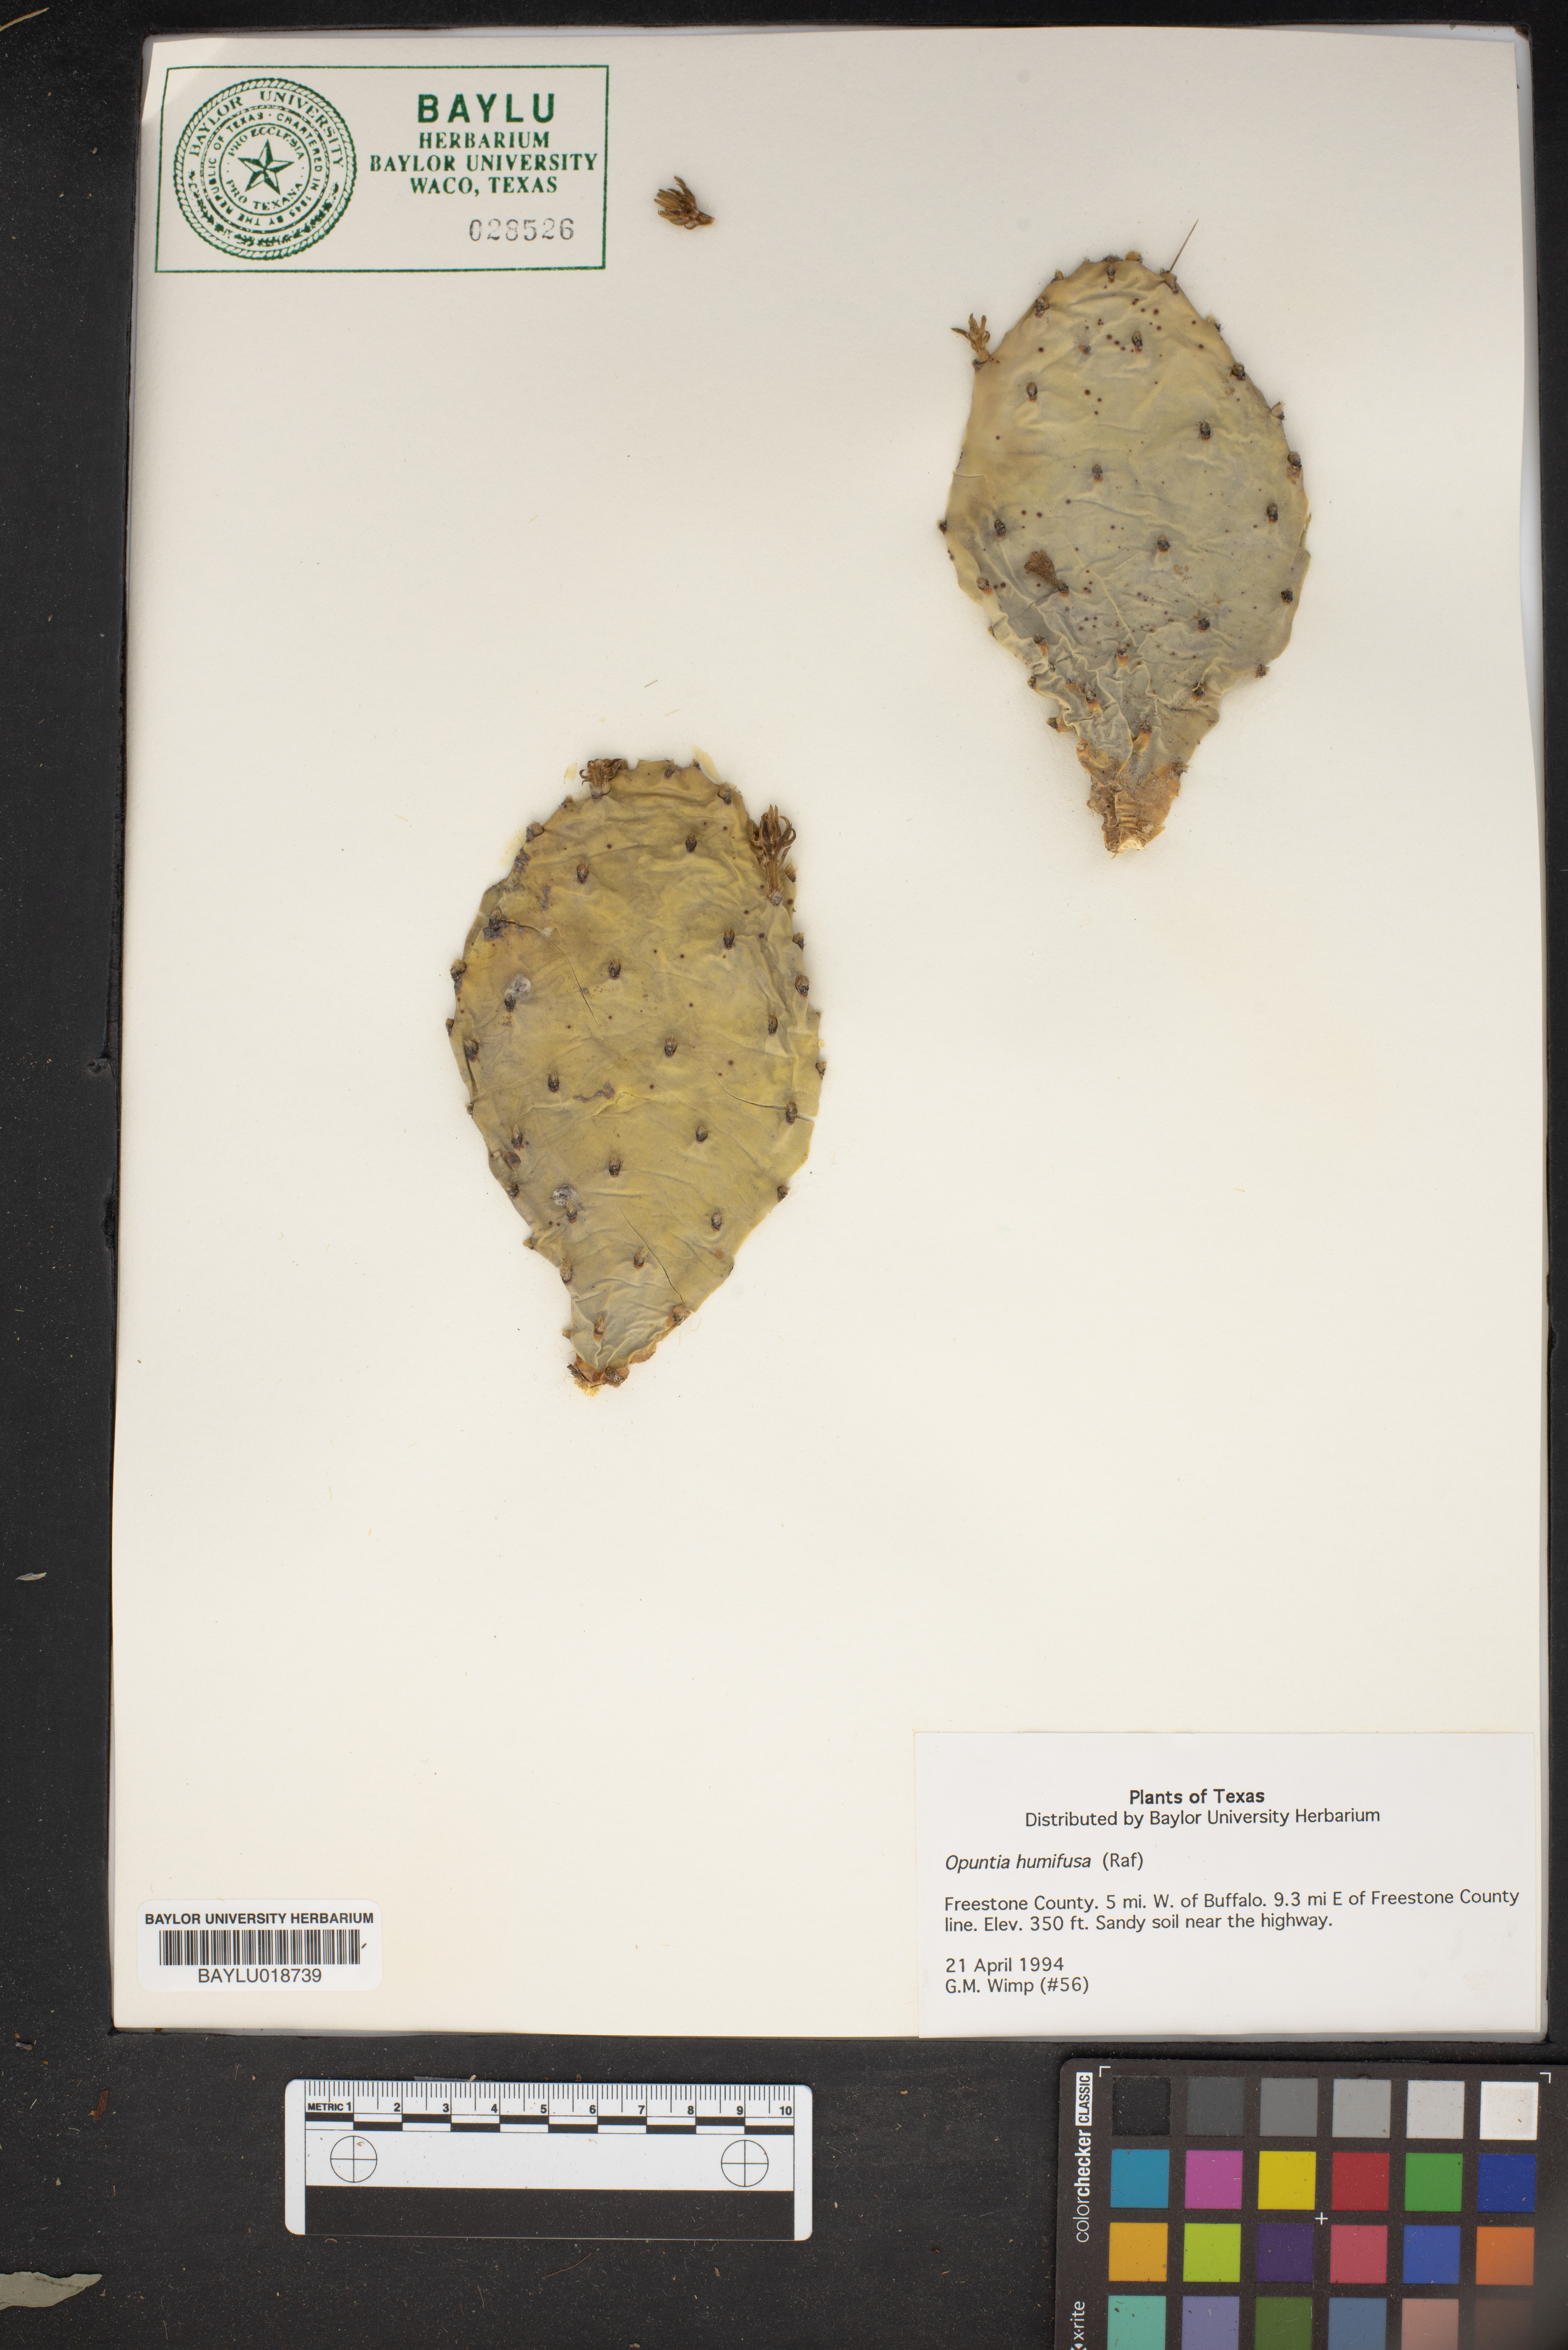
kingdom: Plantae
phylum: Tracheophyta
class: Magnoliopsida
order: Caryophyllales
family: Cactaceae
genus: Opuntia
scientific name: Opuntia humifusa
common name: Eastern prickly-pear
